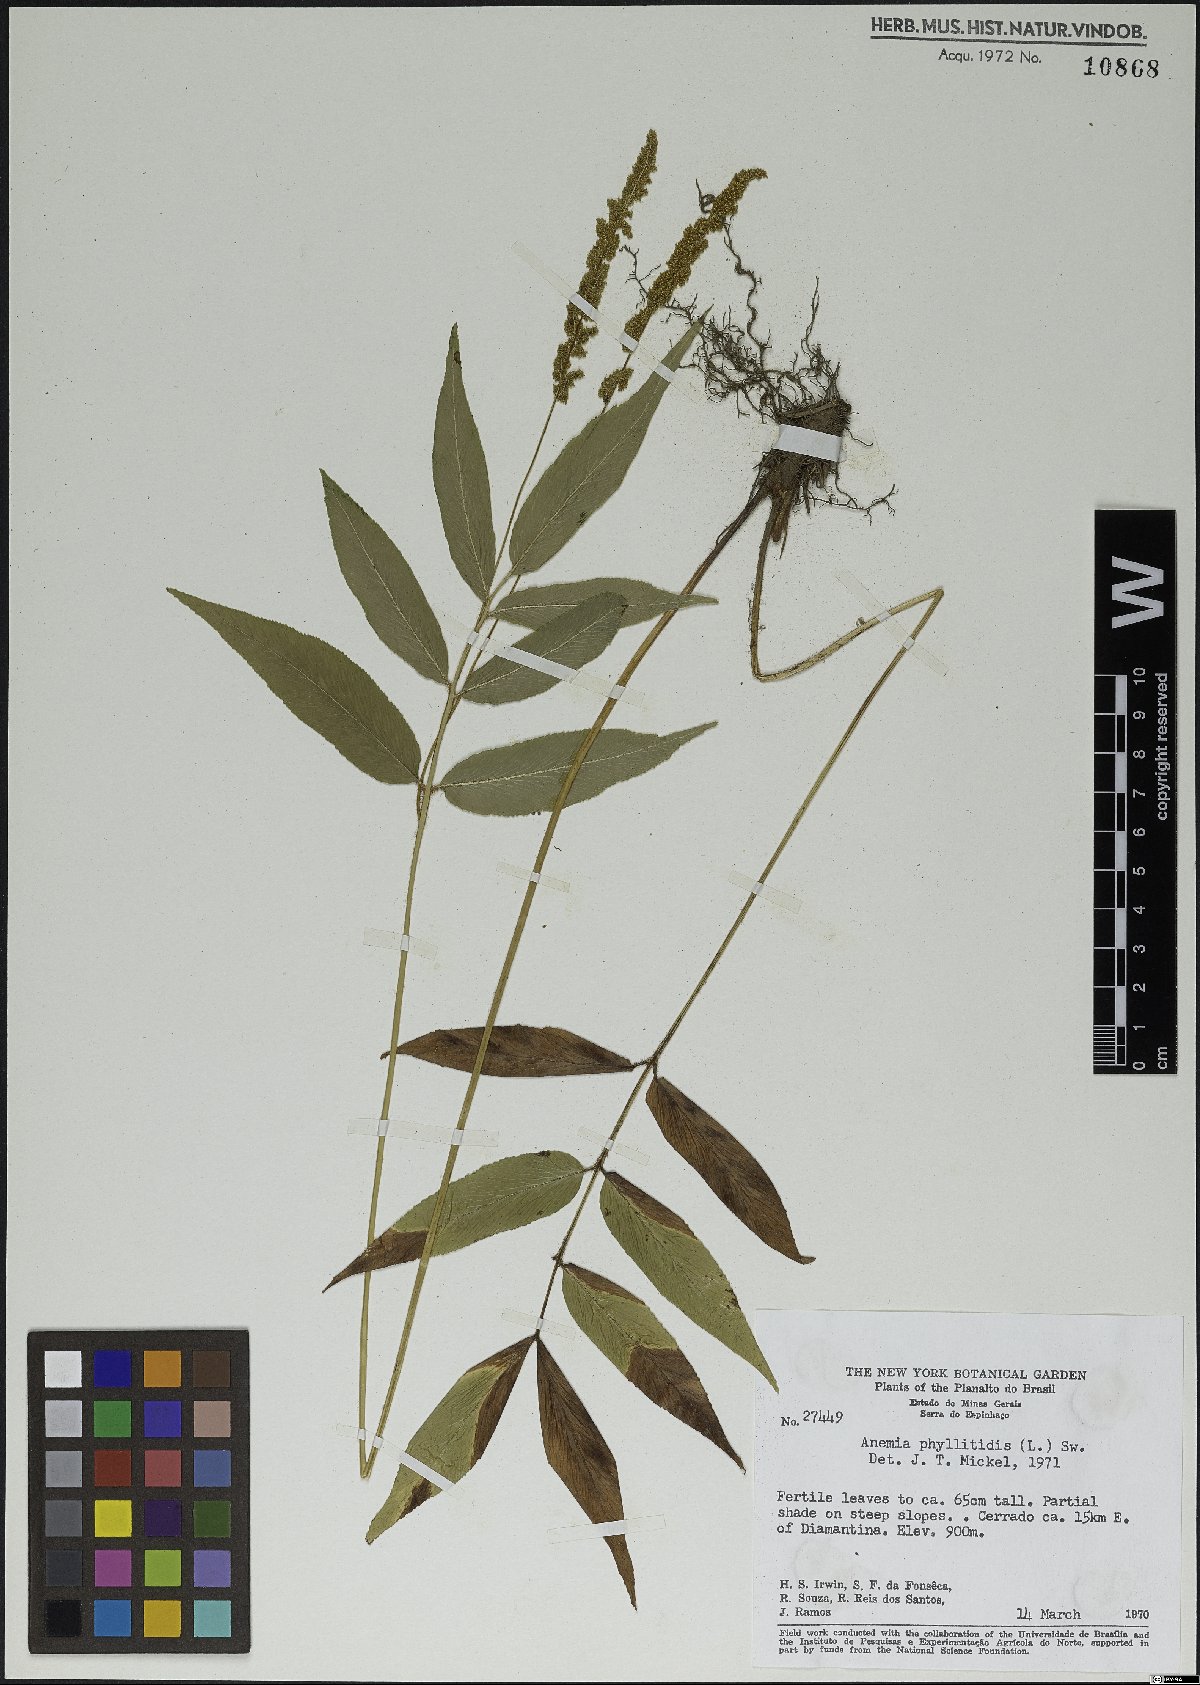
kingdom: Plantae
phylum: Tracheophyta
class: Polypodiopsida
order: Schizaeales
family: Anemiaceae
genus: Anemia
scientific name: Anemia phyllitidis
